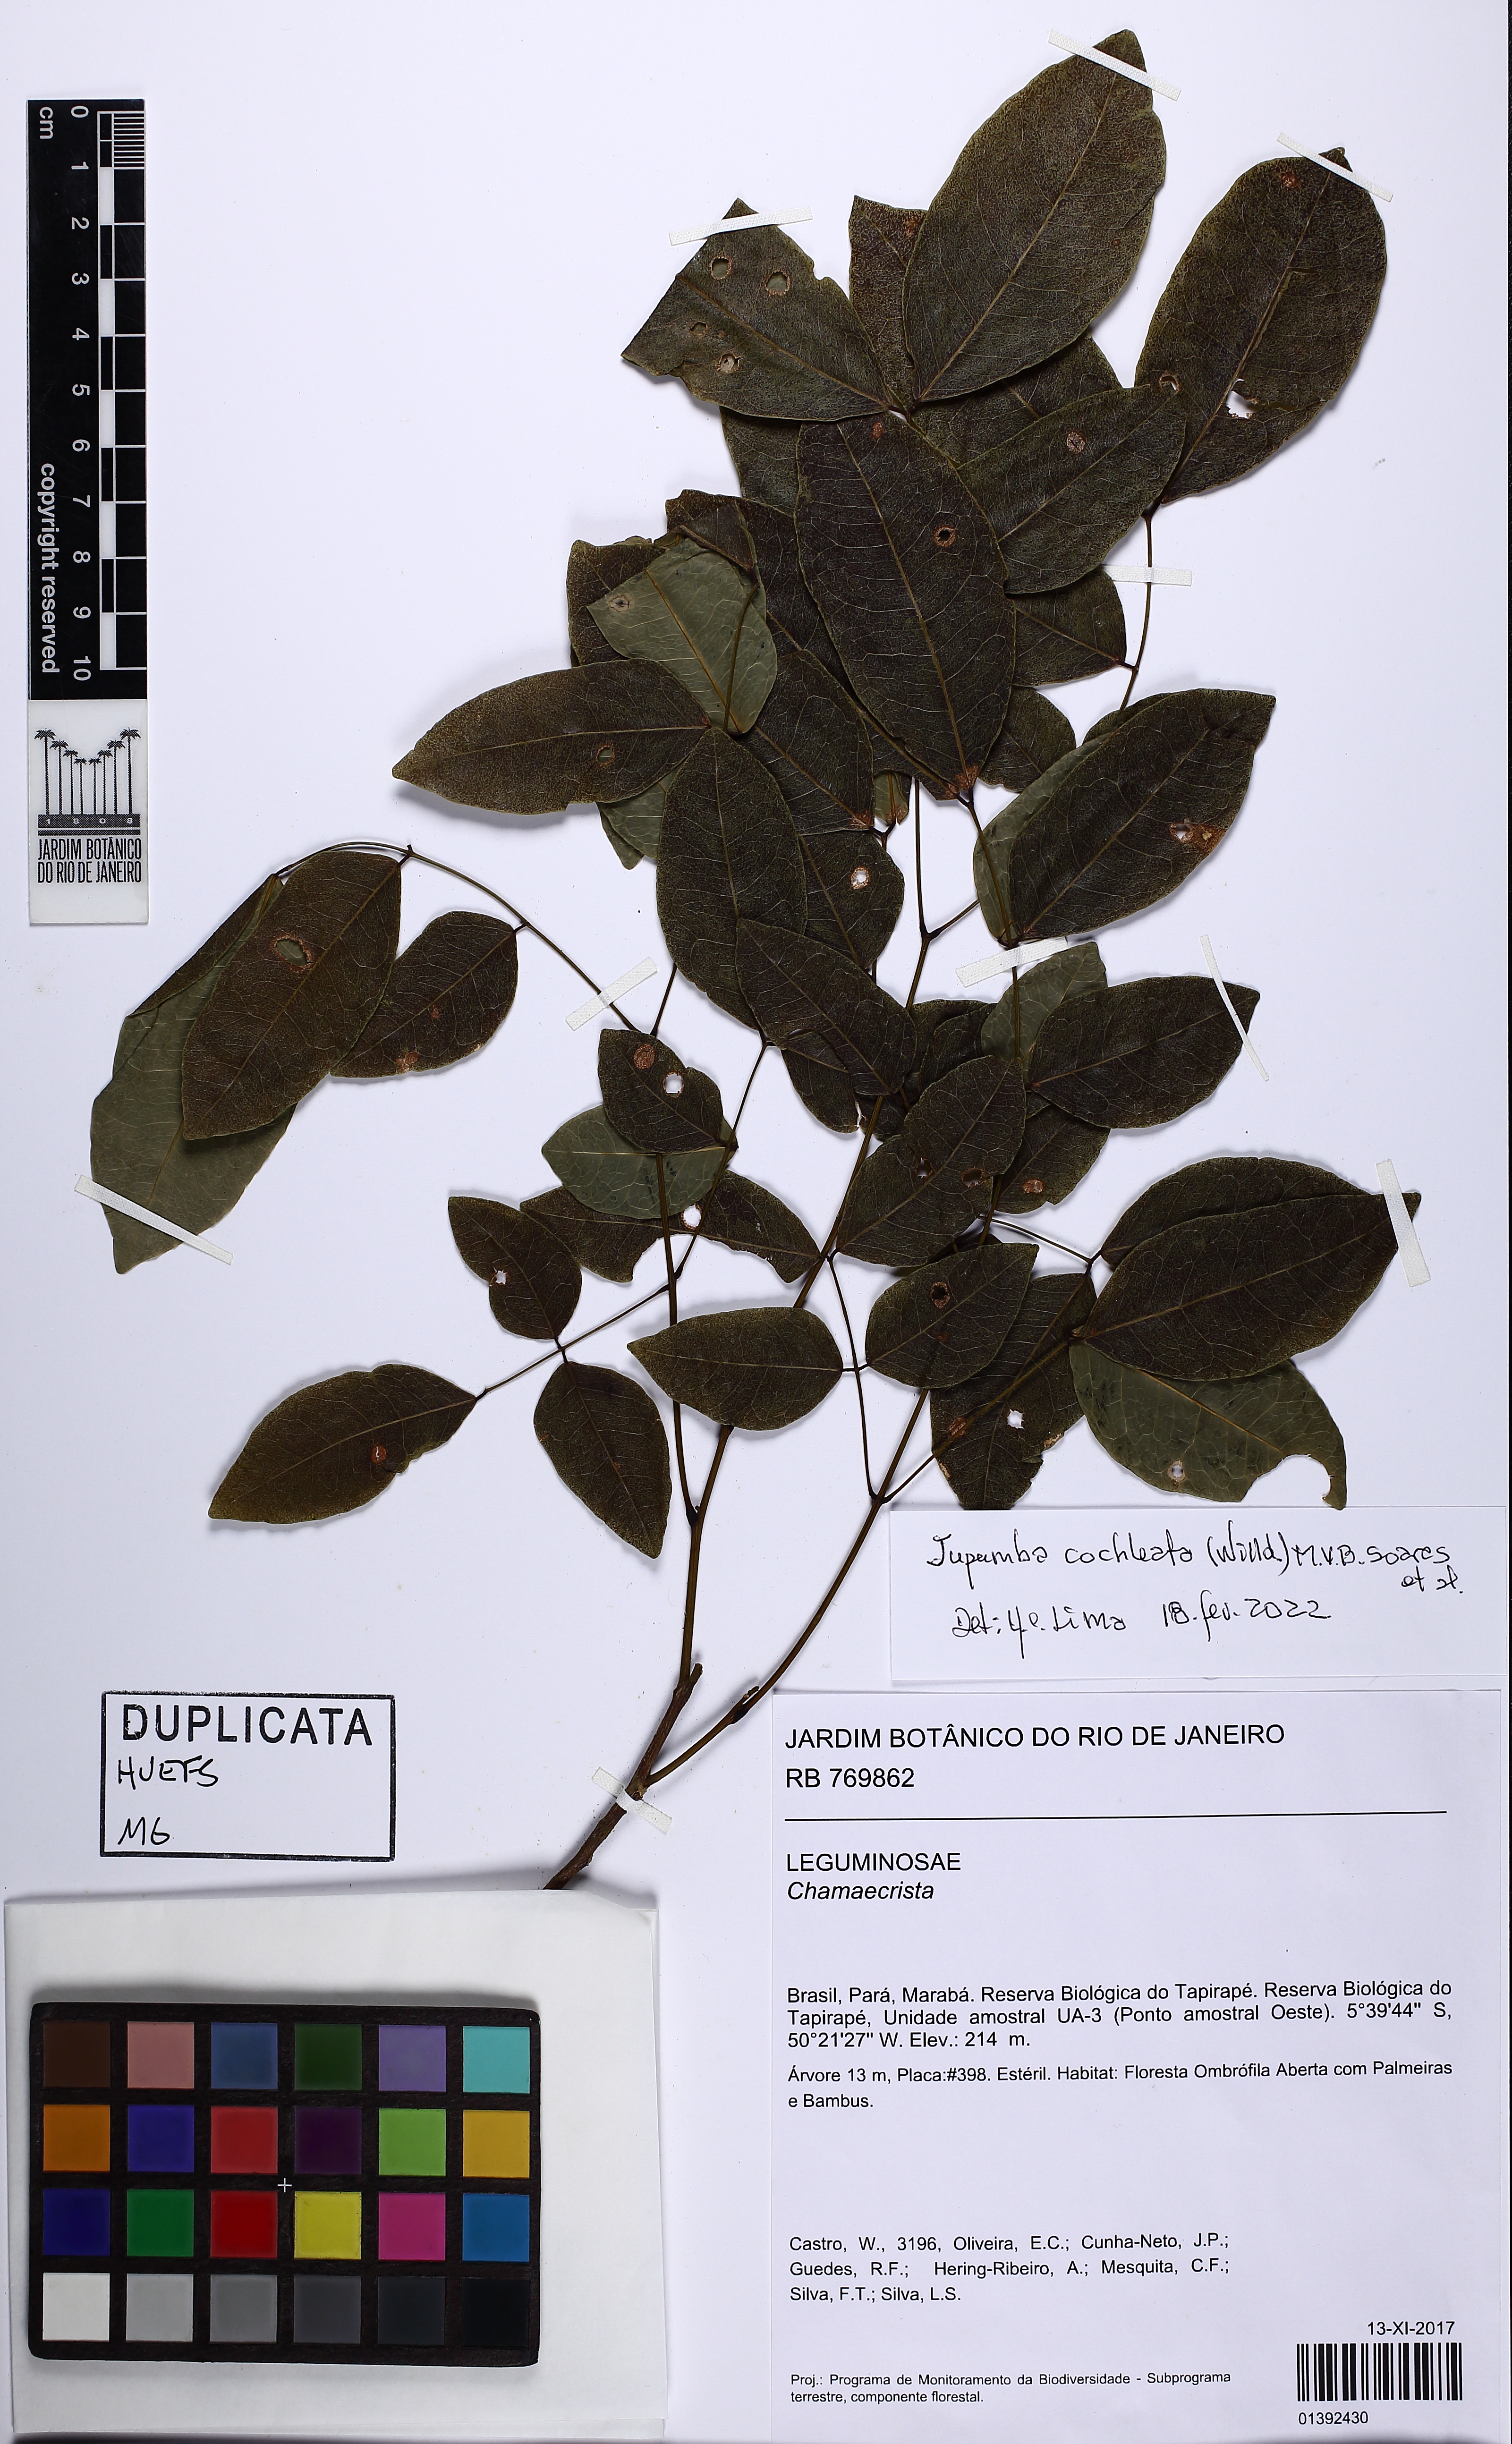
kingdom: Plantae
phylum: Tracheophyta
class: Magnoliopsida
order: Fabales
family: Fabaceae
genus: Jupunba
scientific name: Jupunba cochleata
